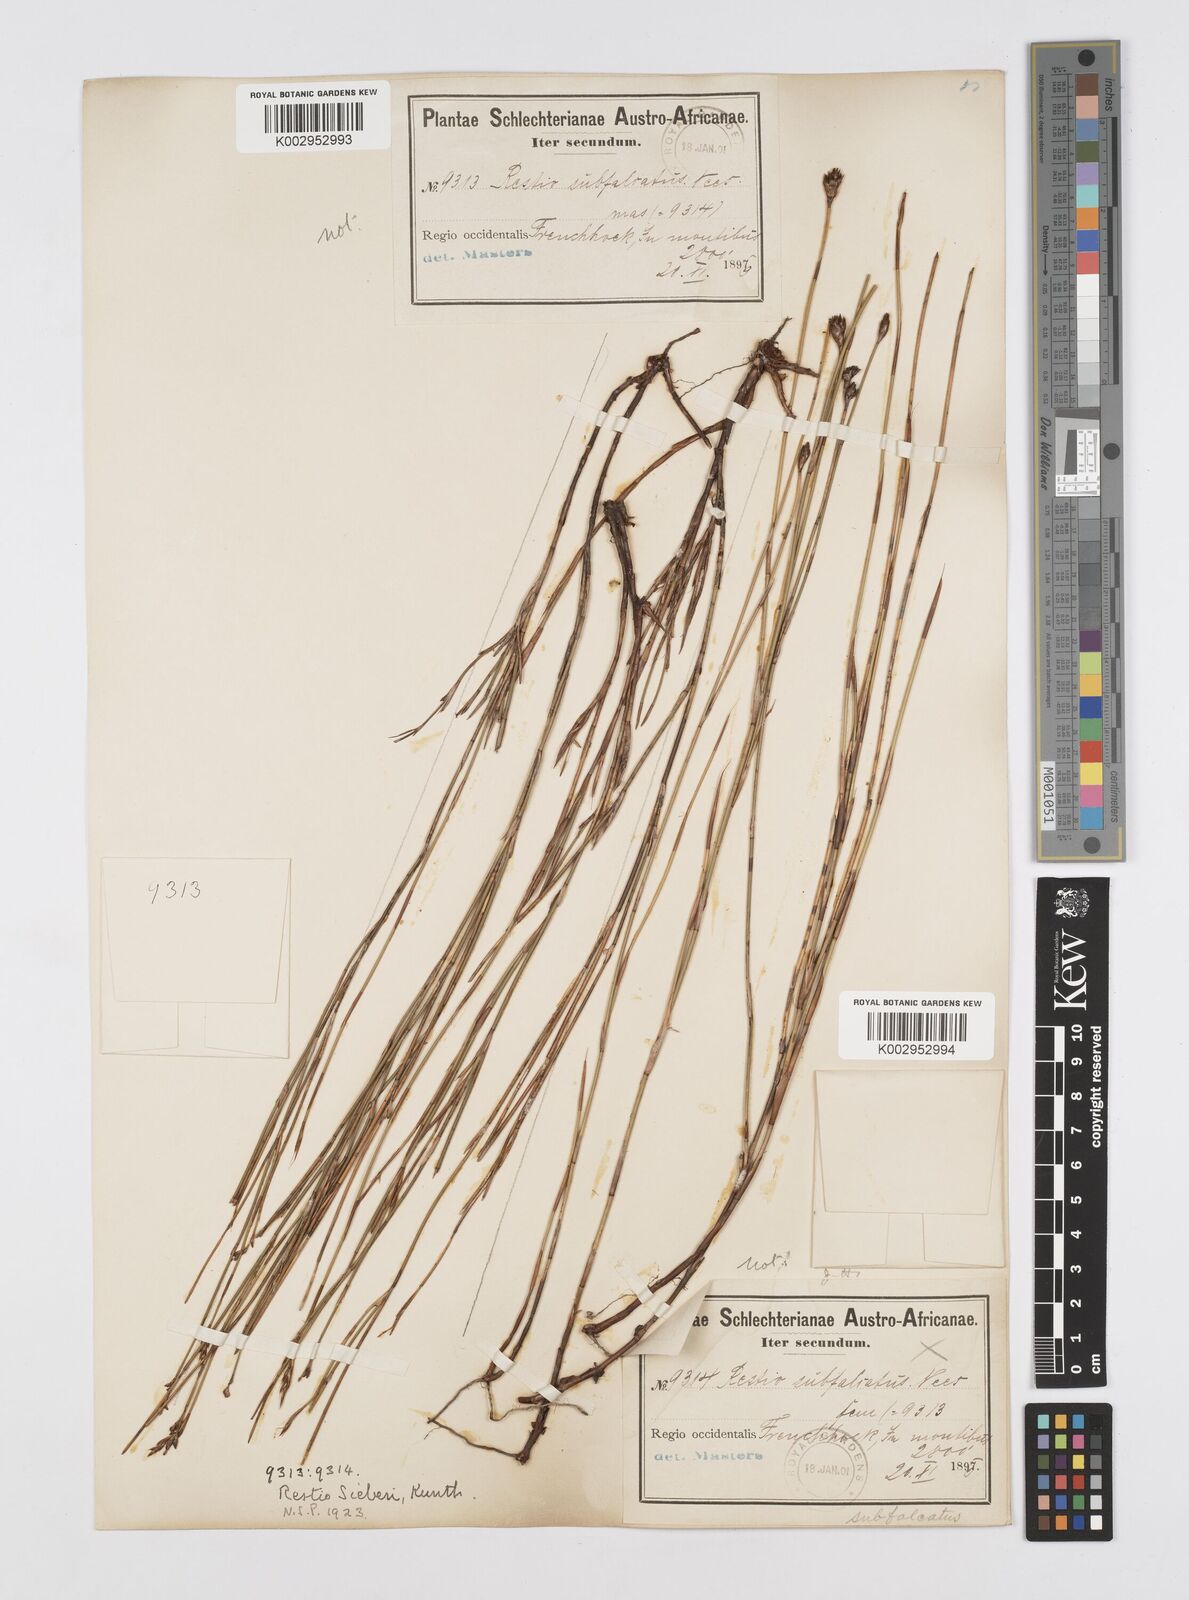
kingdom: Plantae
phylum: Tracheophyta
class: Liliopsida
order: Poales
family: Restionaceae
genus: Restio
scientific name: Restio sieberi
